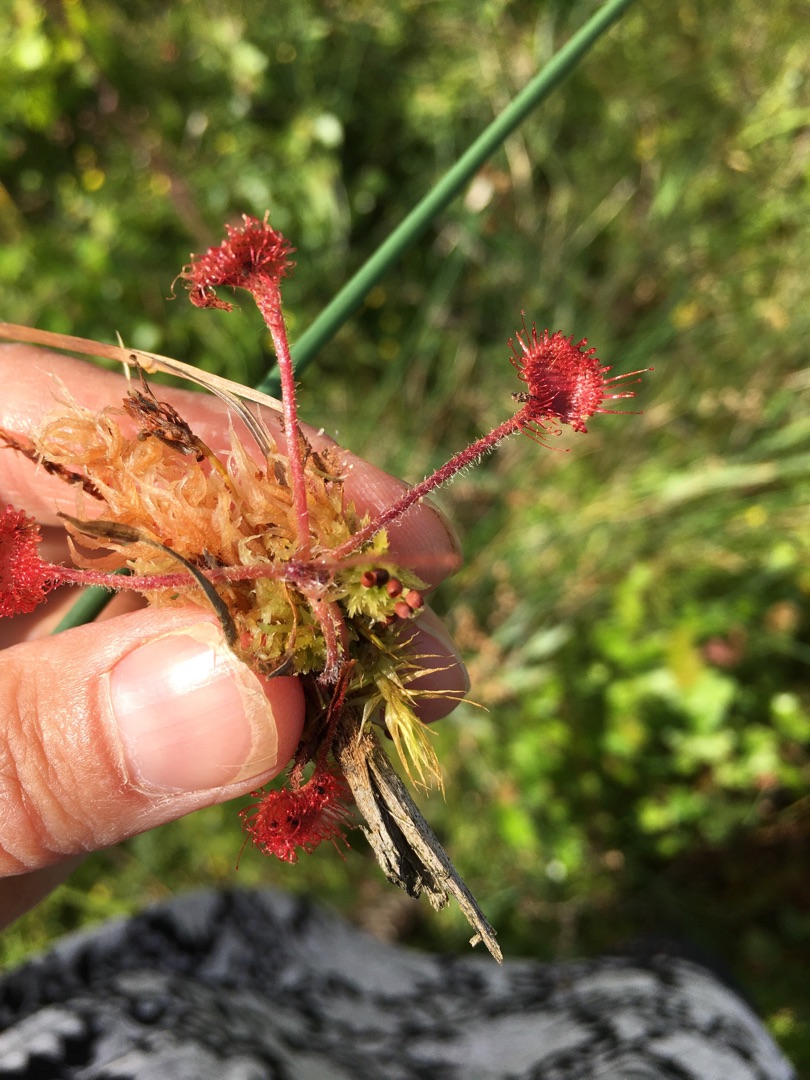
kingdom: Plantae
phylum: Tracheophyta
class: Magnoliopsida
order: Caryophyllales
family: Droseraceae
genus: Drosera
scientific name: Drosera rotundifolia
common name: Rundbladet soldug
